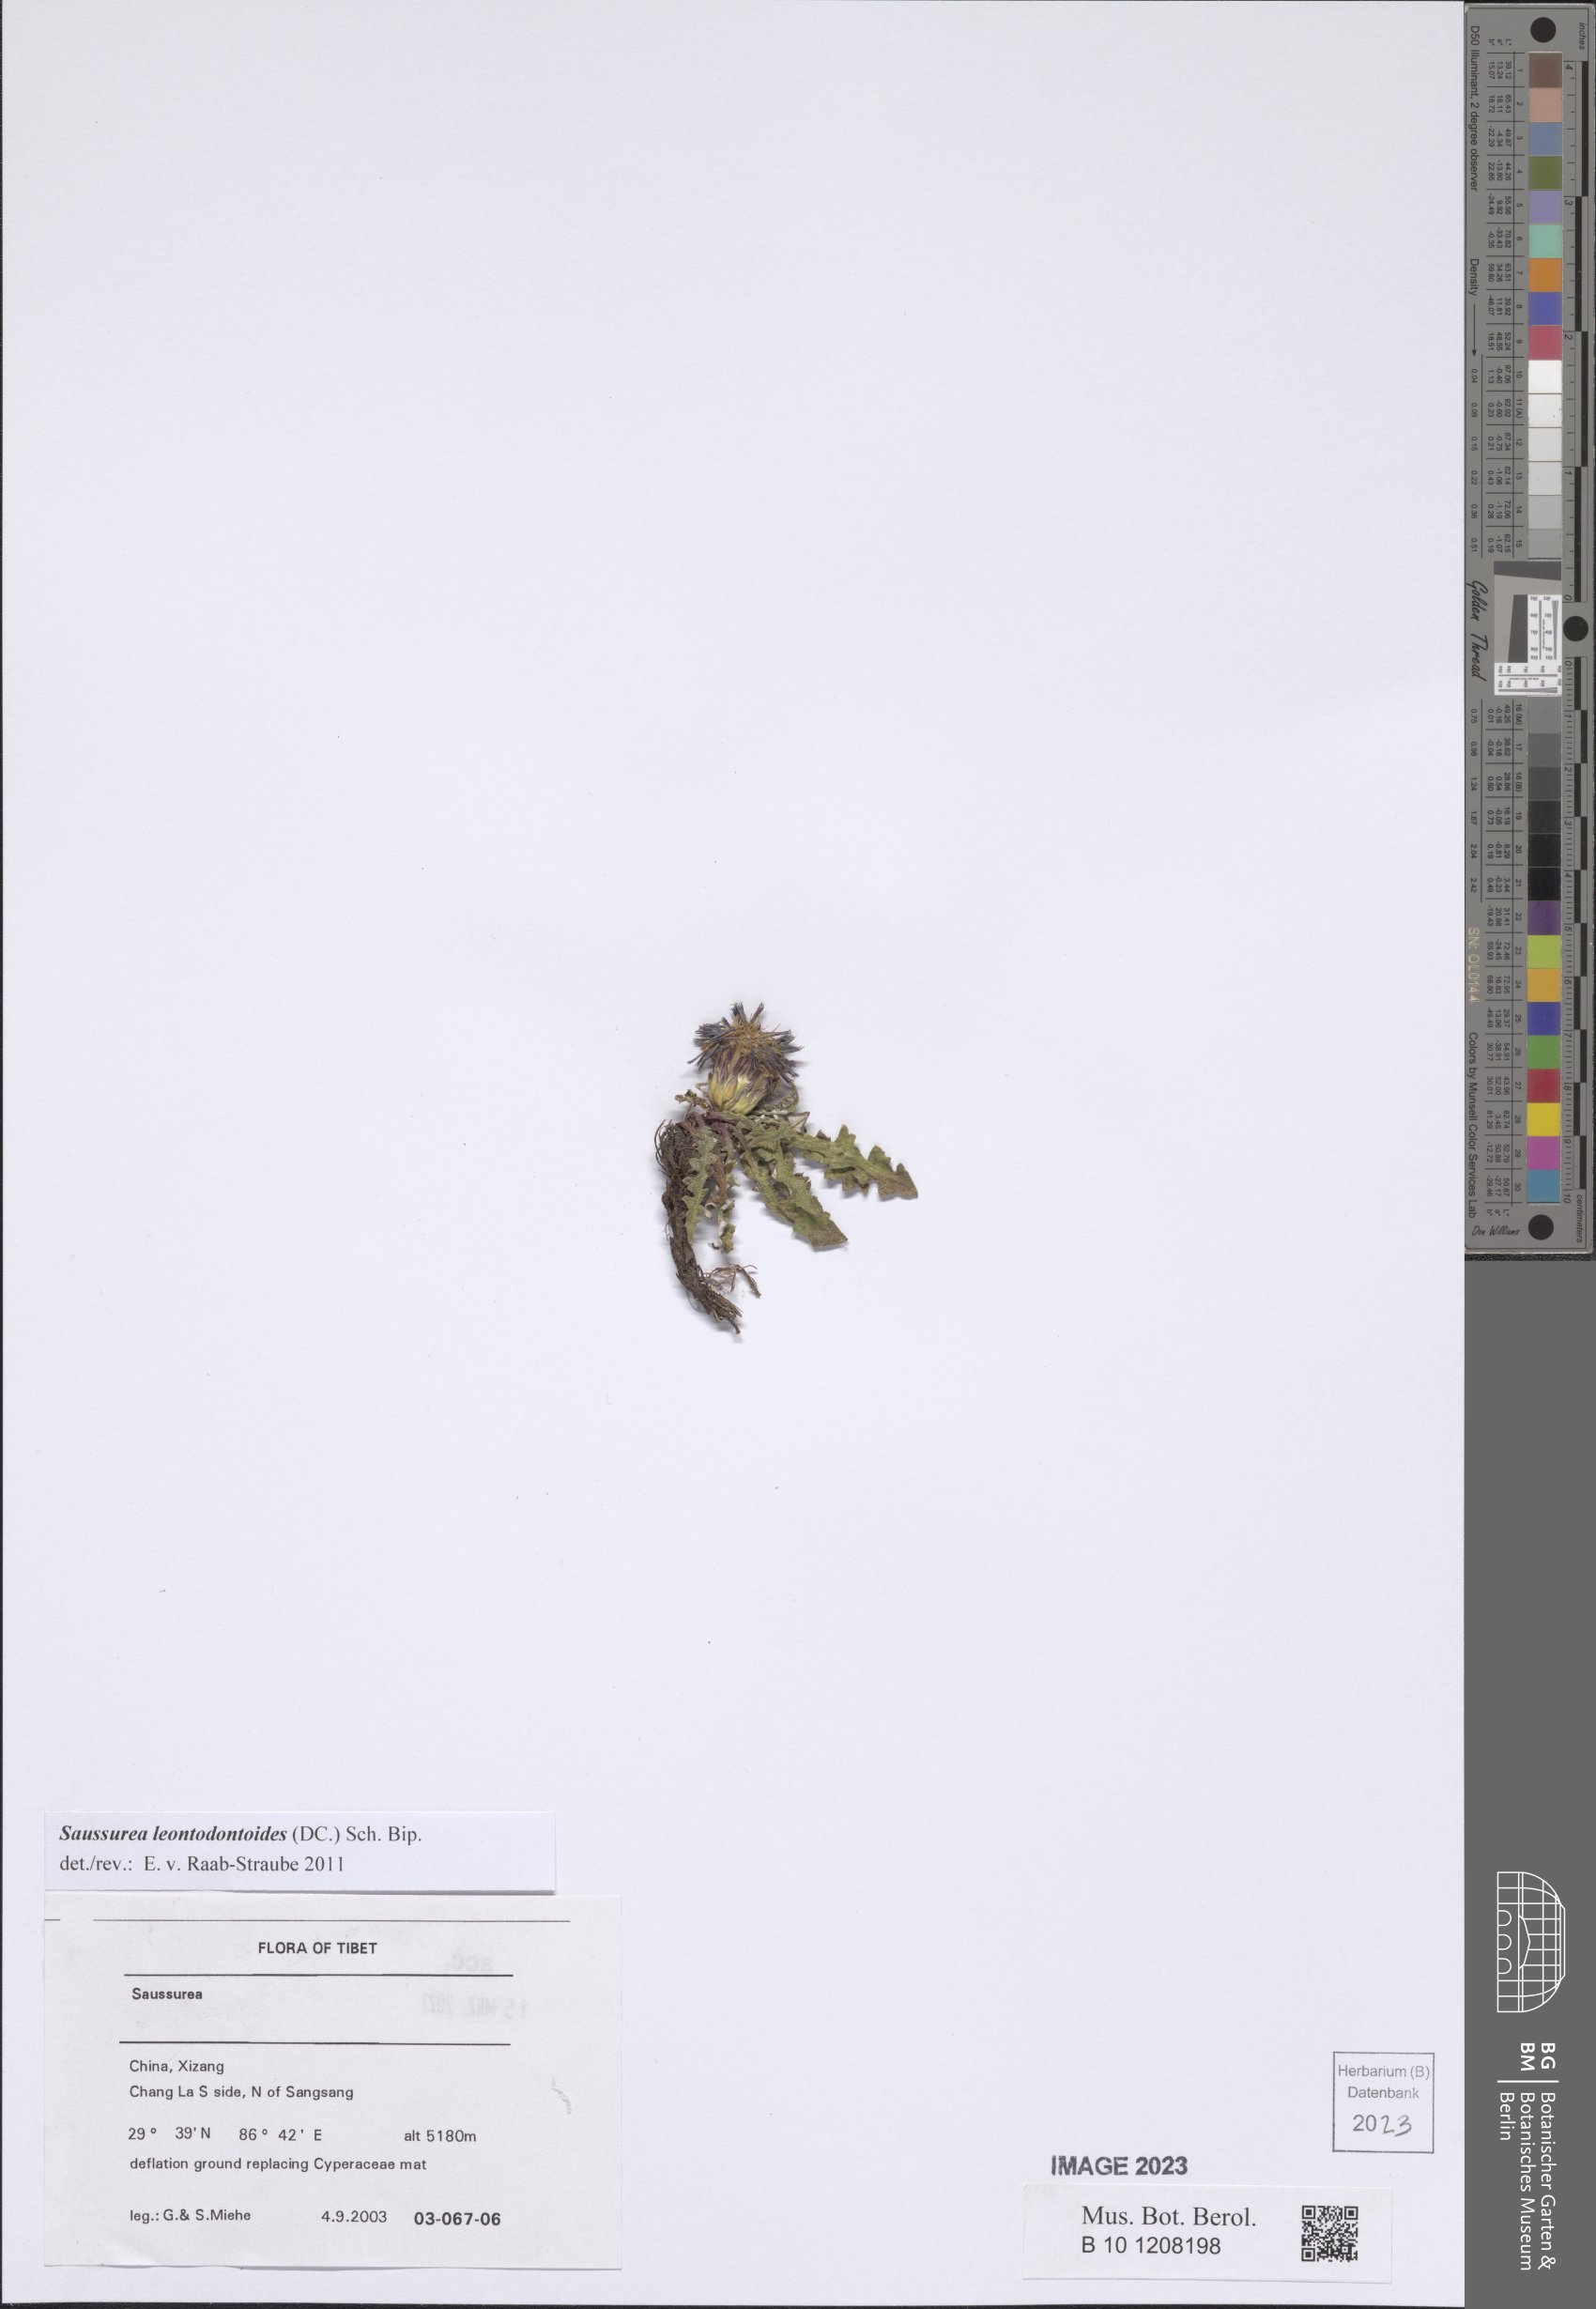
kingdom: Plantae
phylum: Tracheophyta
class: Magnoliopsida
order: Asterales
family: Asteraceae
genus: Saussurea
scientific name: Saussurea leontodontoides
